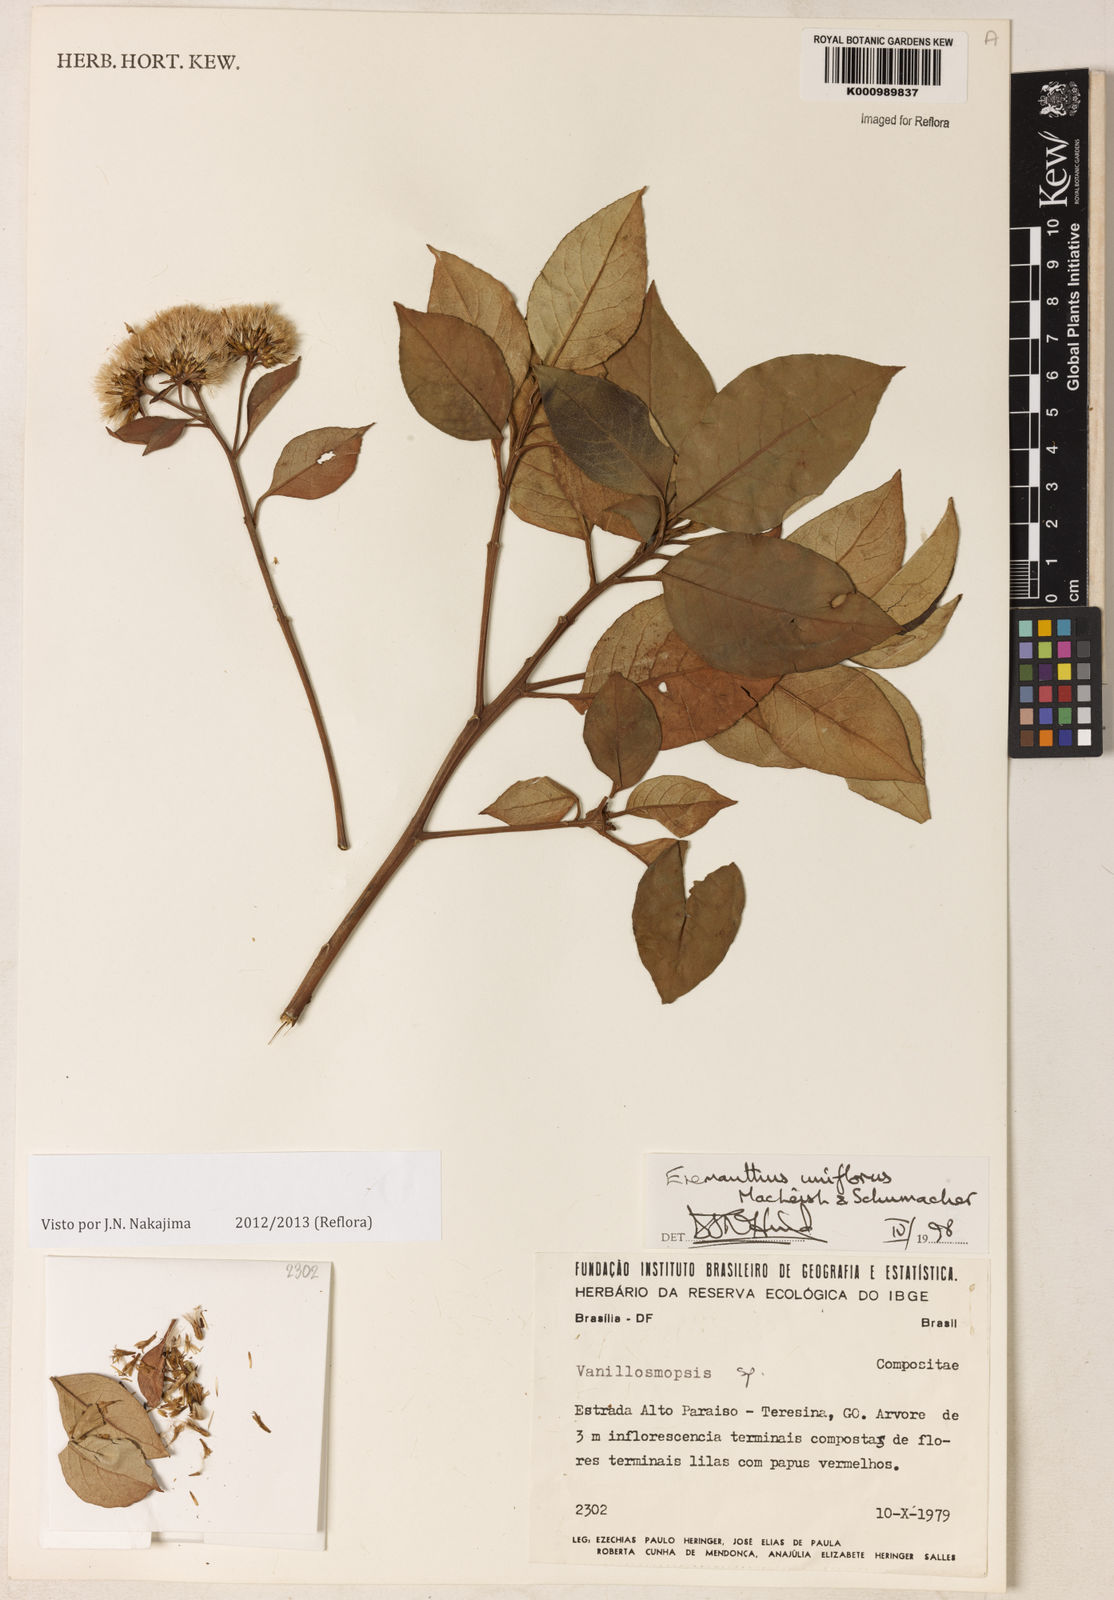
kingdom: Plantae
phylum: Tracheophyta
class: Magnoliopsida
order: Asterales
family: Asteraceae
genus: Eremanthus
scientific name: Eremanthus uniflorus
